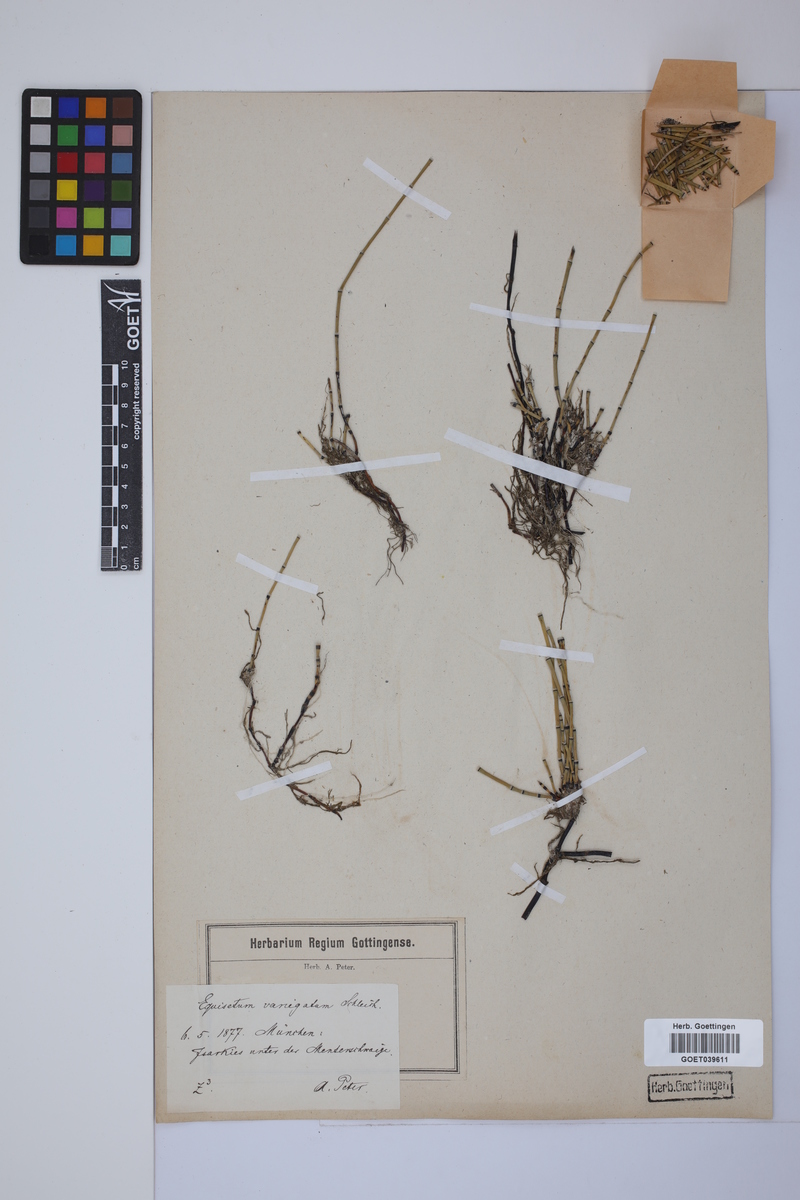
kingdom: Plantae
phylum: Tracheophyta
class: Polypodiopsida
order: Equisetales
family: Equisetaceae
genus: Equisetum
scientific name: Equisetum variegatum
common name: Variegated horsetail
